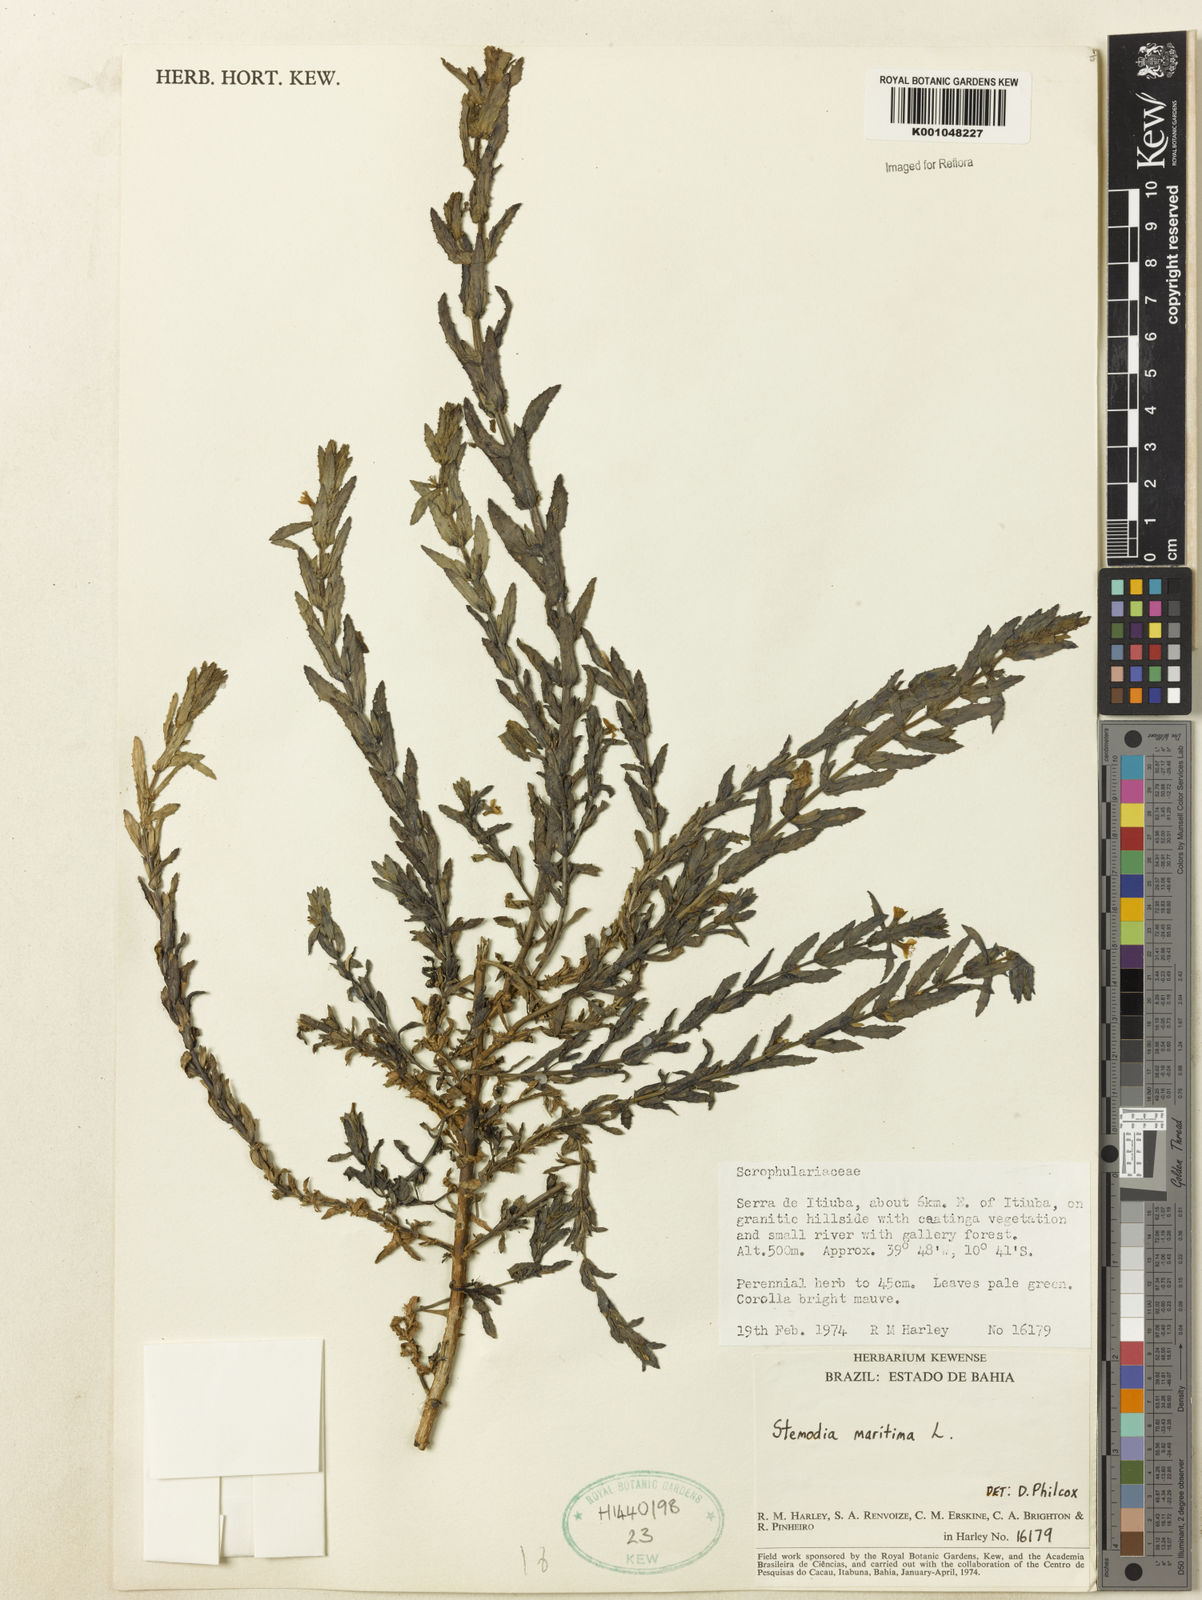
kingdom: Plantae
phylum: Tracheophyta
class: Magnoliopsida
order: Lamiales
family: Plantaginaceae
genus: Stemodia
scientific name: Stemodia maritima
